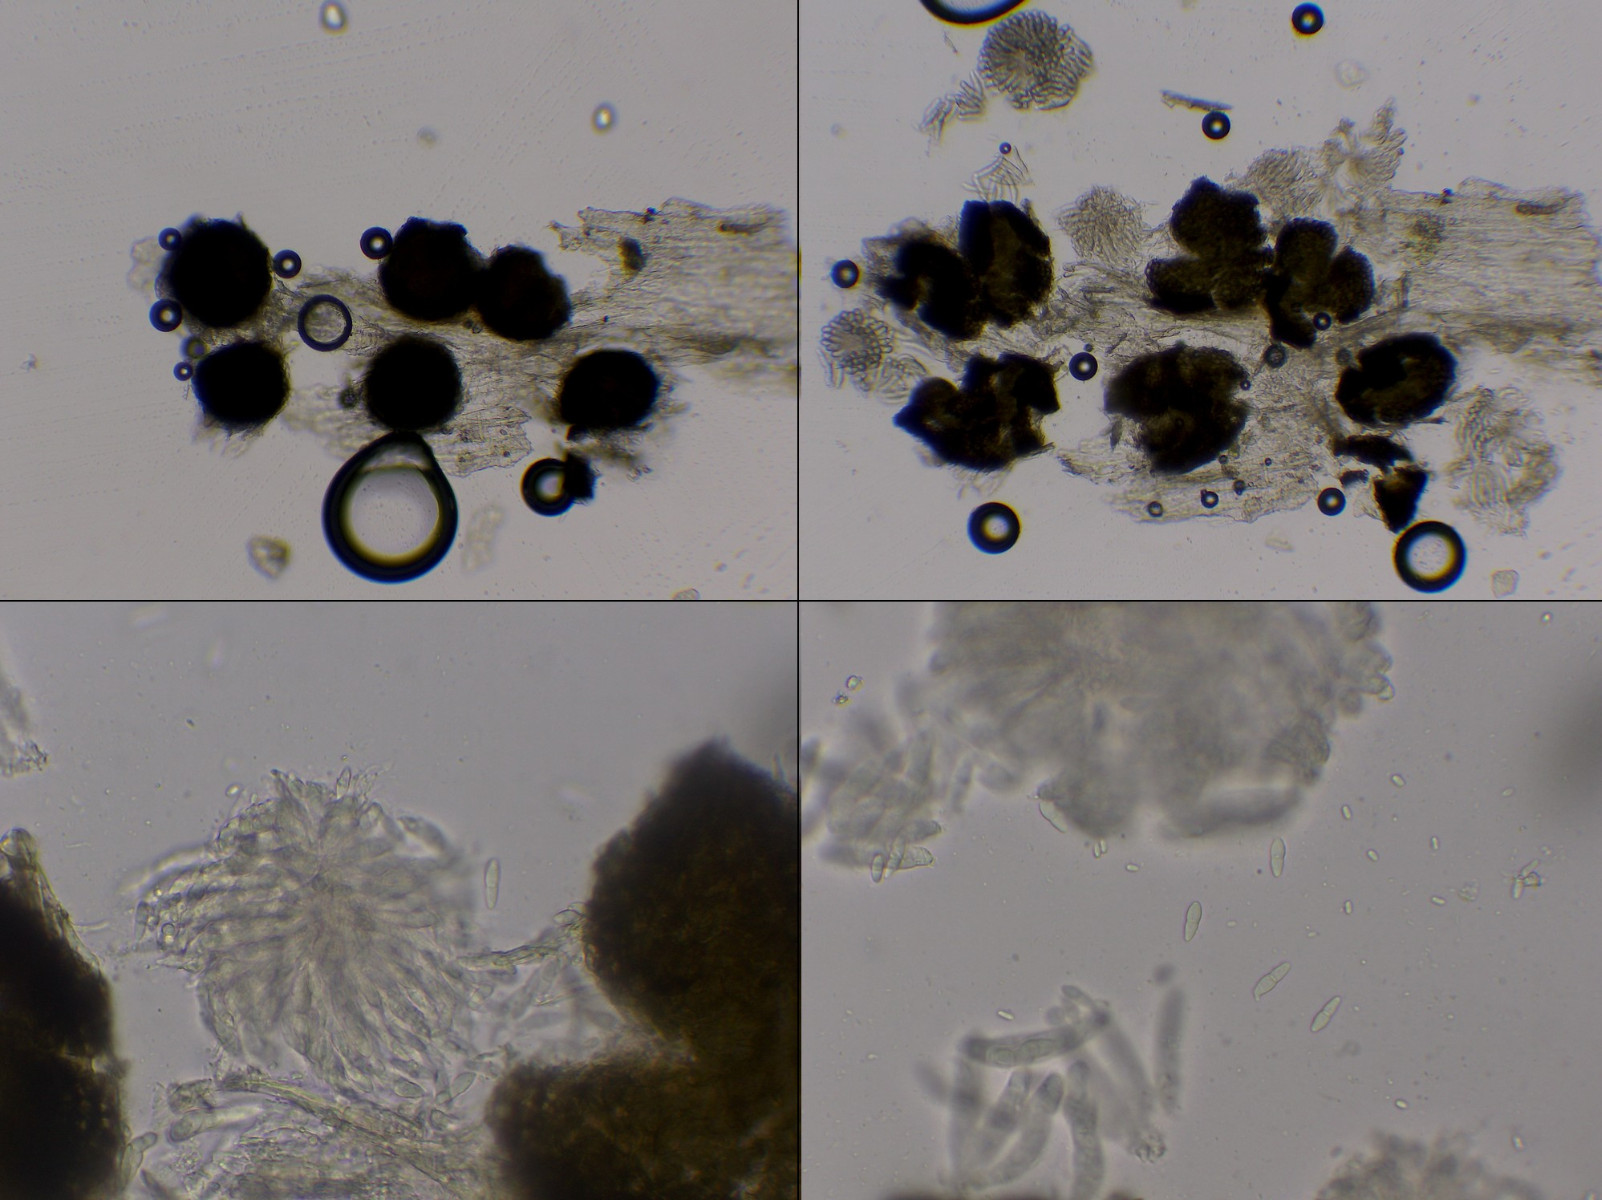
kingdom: Fungi
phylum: Ascomycota
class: Dothideomycetes
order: Mycosphaerellales
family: Mycosphaerellaceae
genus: Mycosphaerella
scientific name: Mycosphaerella superflua
